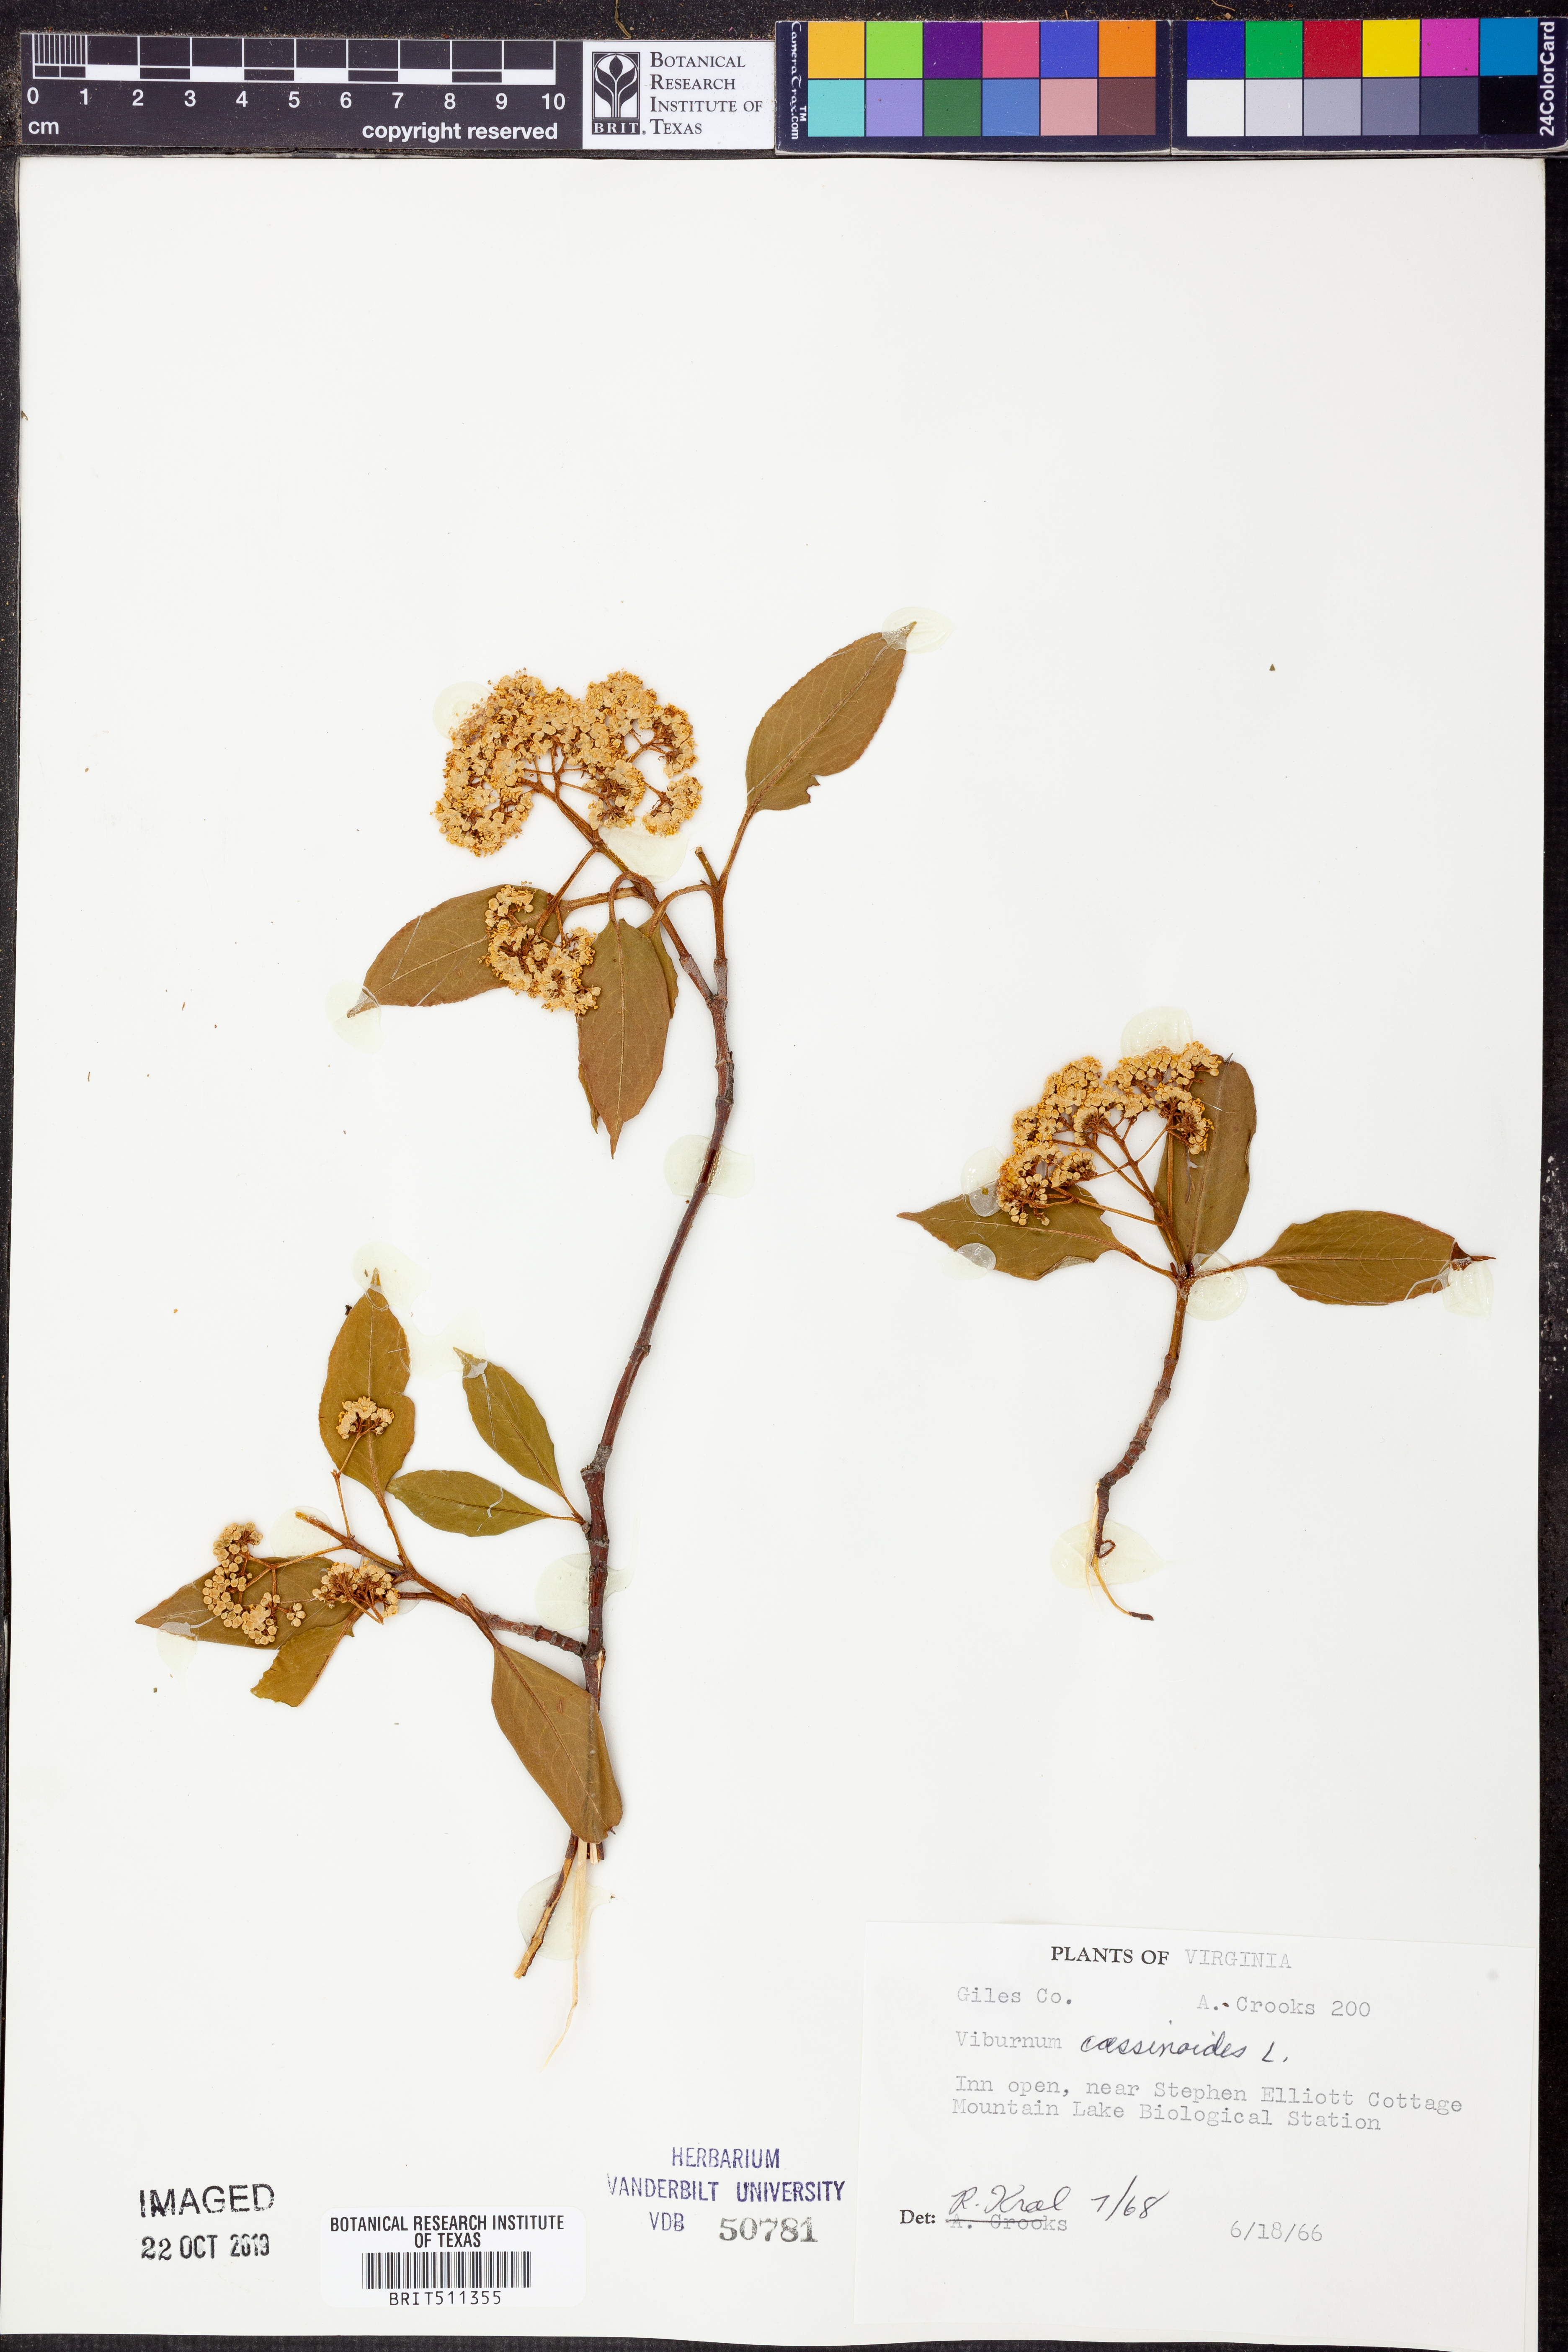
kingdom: Plantae
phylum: Tracheophyta
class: Magnoliopsida
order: Dipsacales
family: Viburnaceae
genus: Viburnum
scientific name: Viburnum cassinoides
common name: Swamp haw
